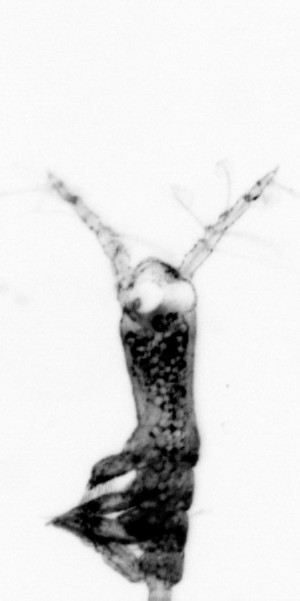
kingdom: Animalia
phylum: Arthropoda
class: Copepoda
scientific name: Copepoda
